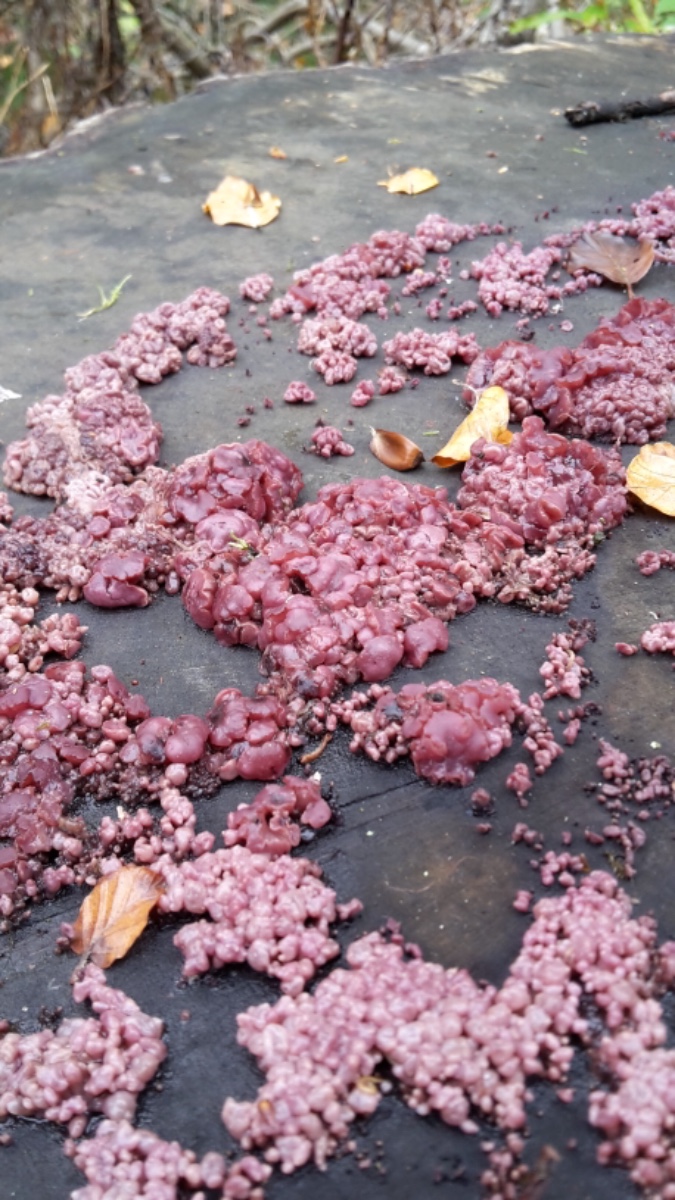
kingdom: Fungi
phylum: Ascomycota
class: Leotiomycetes
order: Helotiales
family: Gelatinodiscaceae
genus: Ascocoryne
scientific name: Ascocoryne sarcoides
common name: rødlilla sejskive
